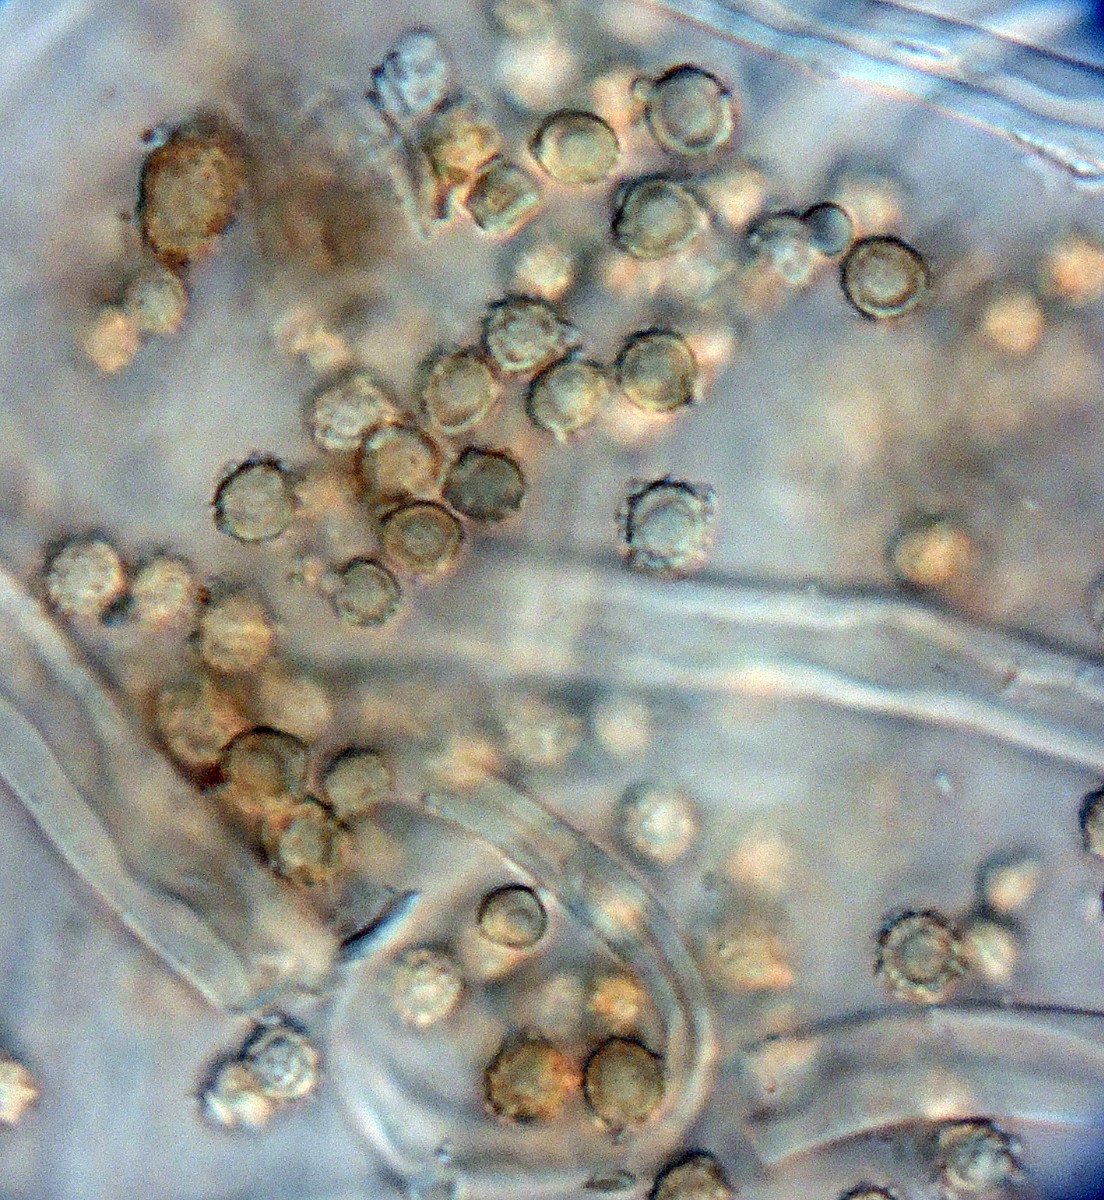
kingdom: Fungi
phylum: Basidiomycota
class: Agaricomycetes
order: Agaricales
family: Agaricaceae
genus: Tulostoma
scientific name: Tulostoma fimbriatum
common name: frynset stilkbovist
